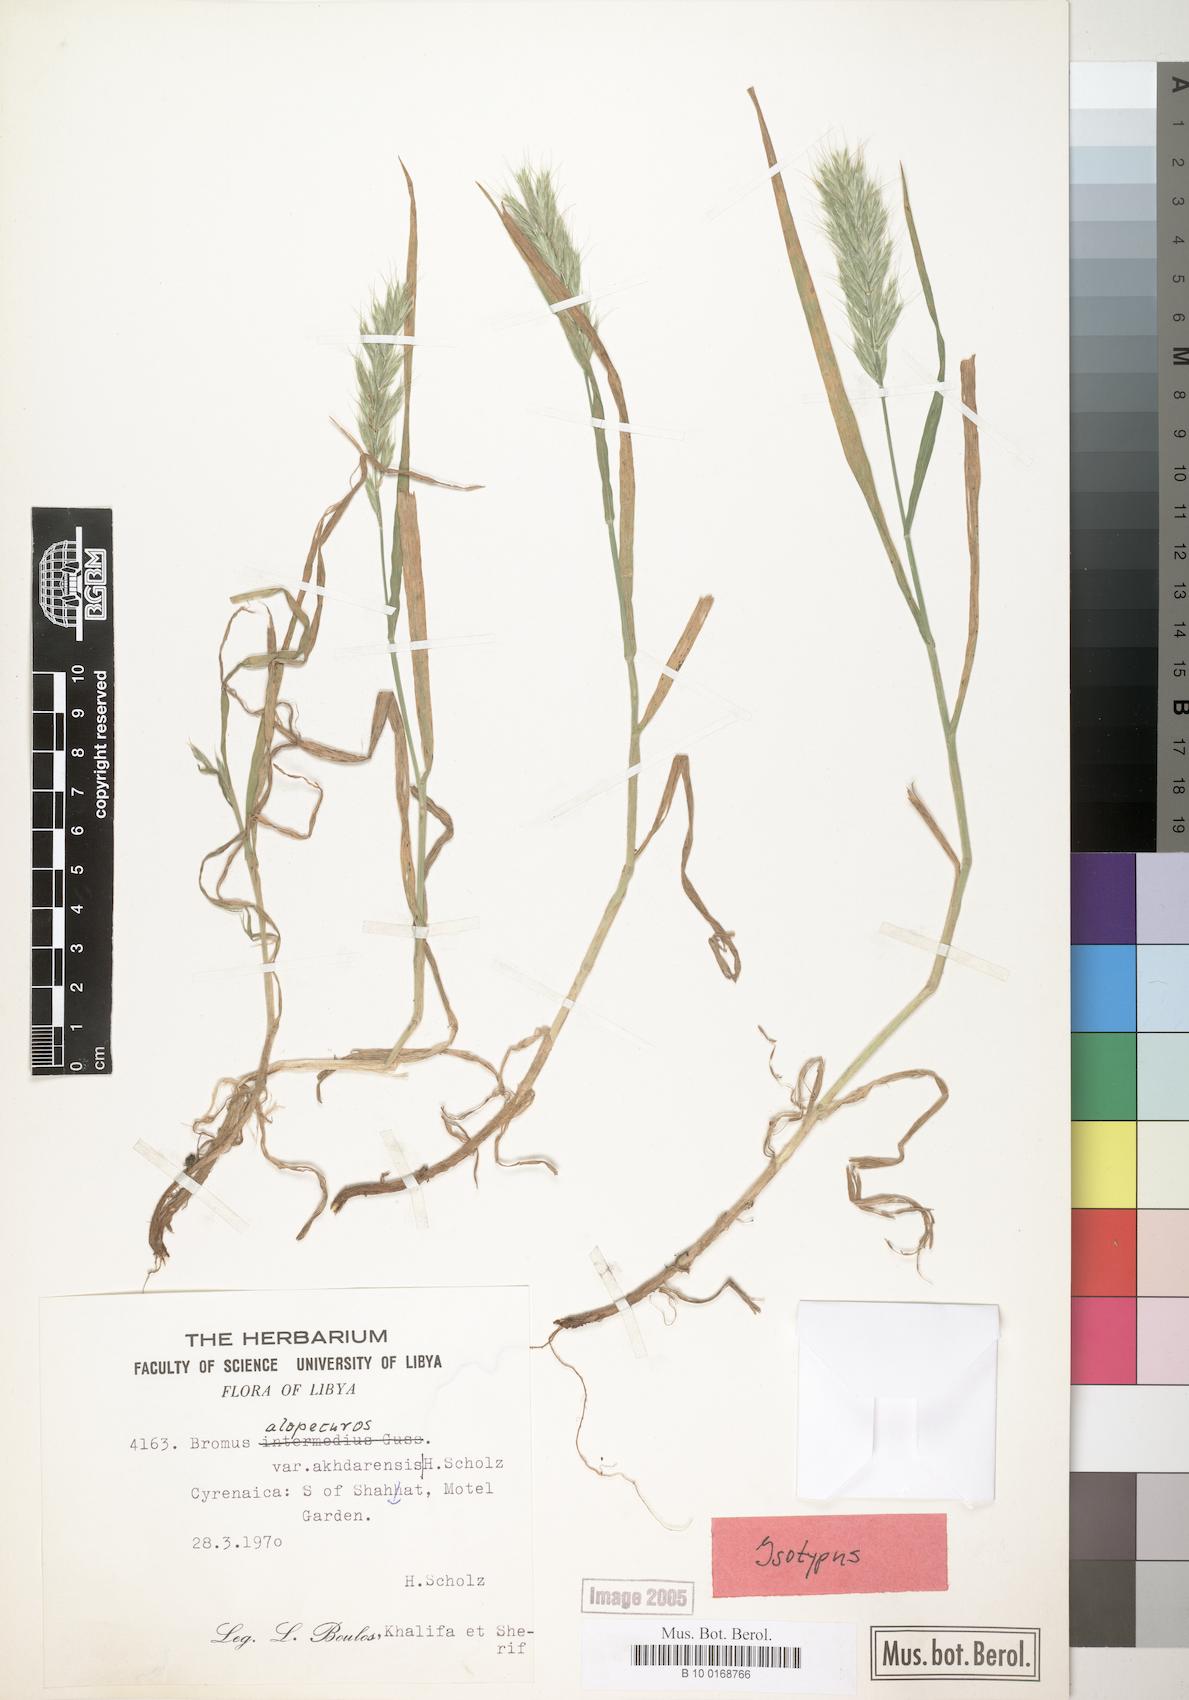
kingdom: Plantae
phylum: Tracheophyta
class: Liliopsida
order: Poales
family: Poaceae
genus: Bromus
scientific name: Bromus alopecuros
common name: Weedy brome
